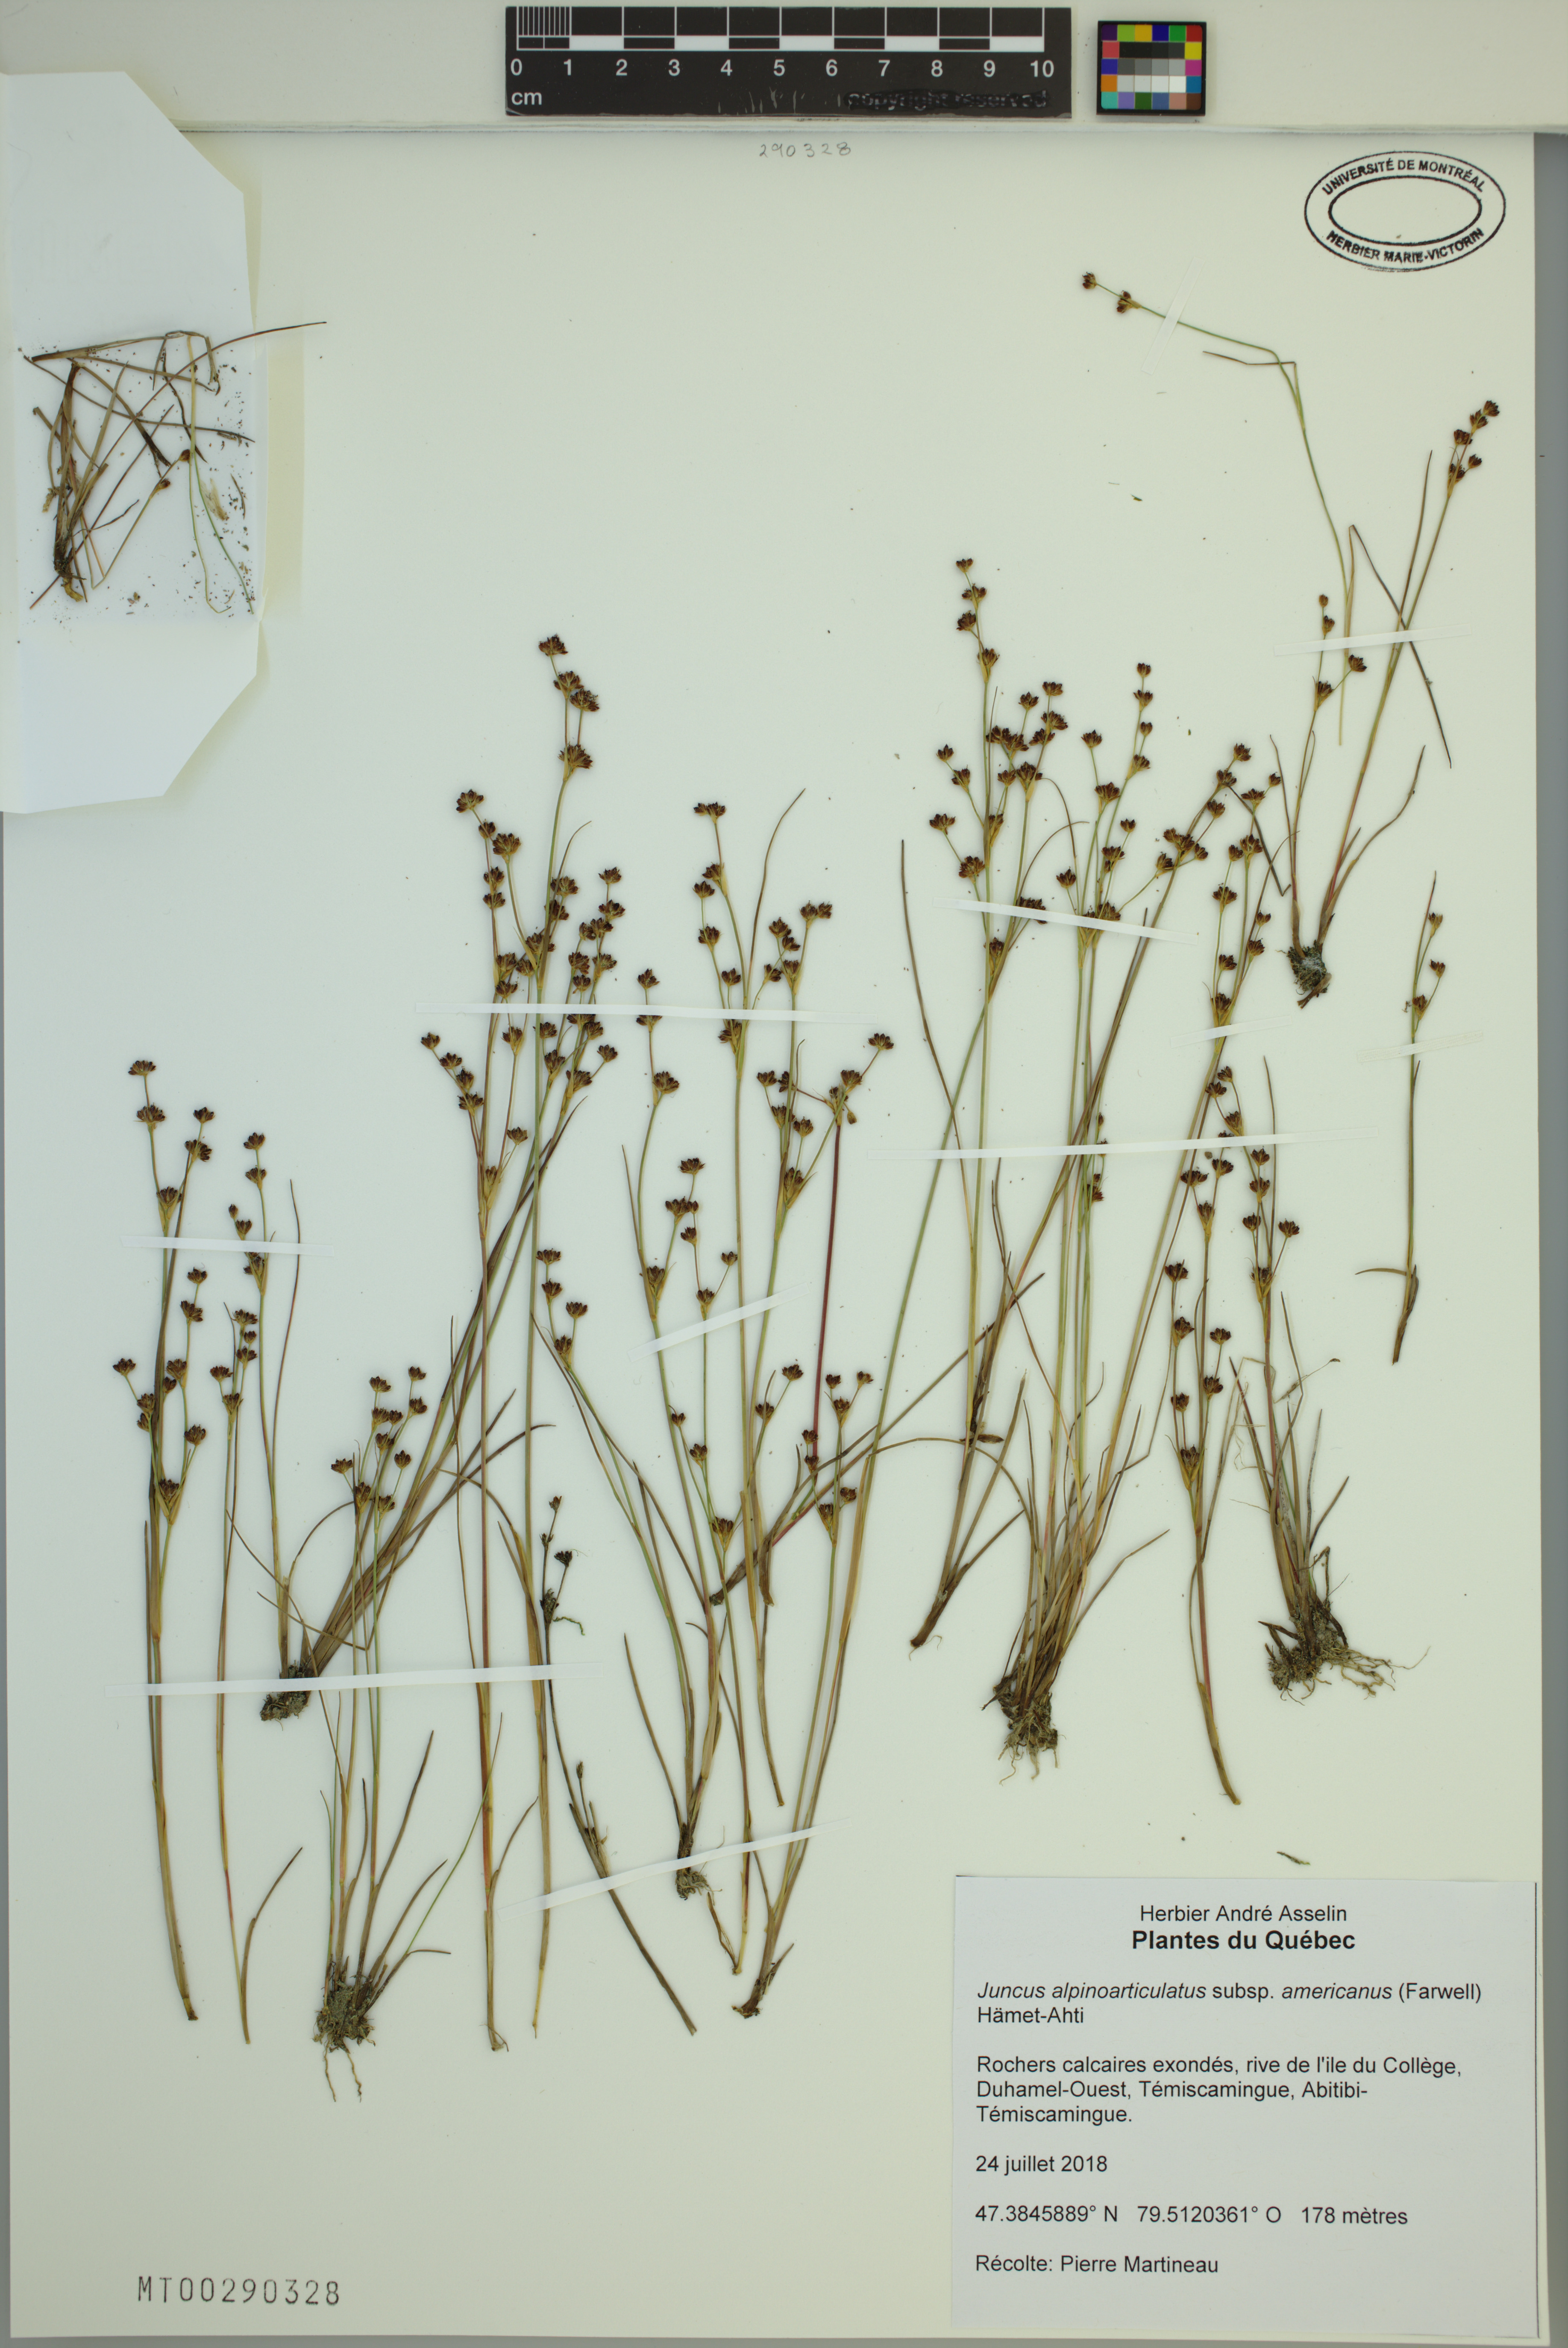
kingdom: Plantae
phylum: Tracheophyta
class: Liliopsida
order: Poales
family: Juncaceae
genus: Juncus
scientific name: Juncus alpinoarticulatus
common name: Alpine rush
